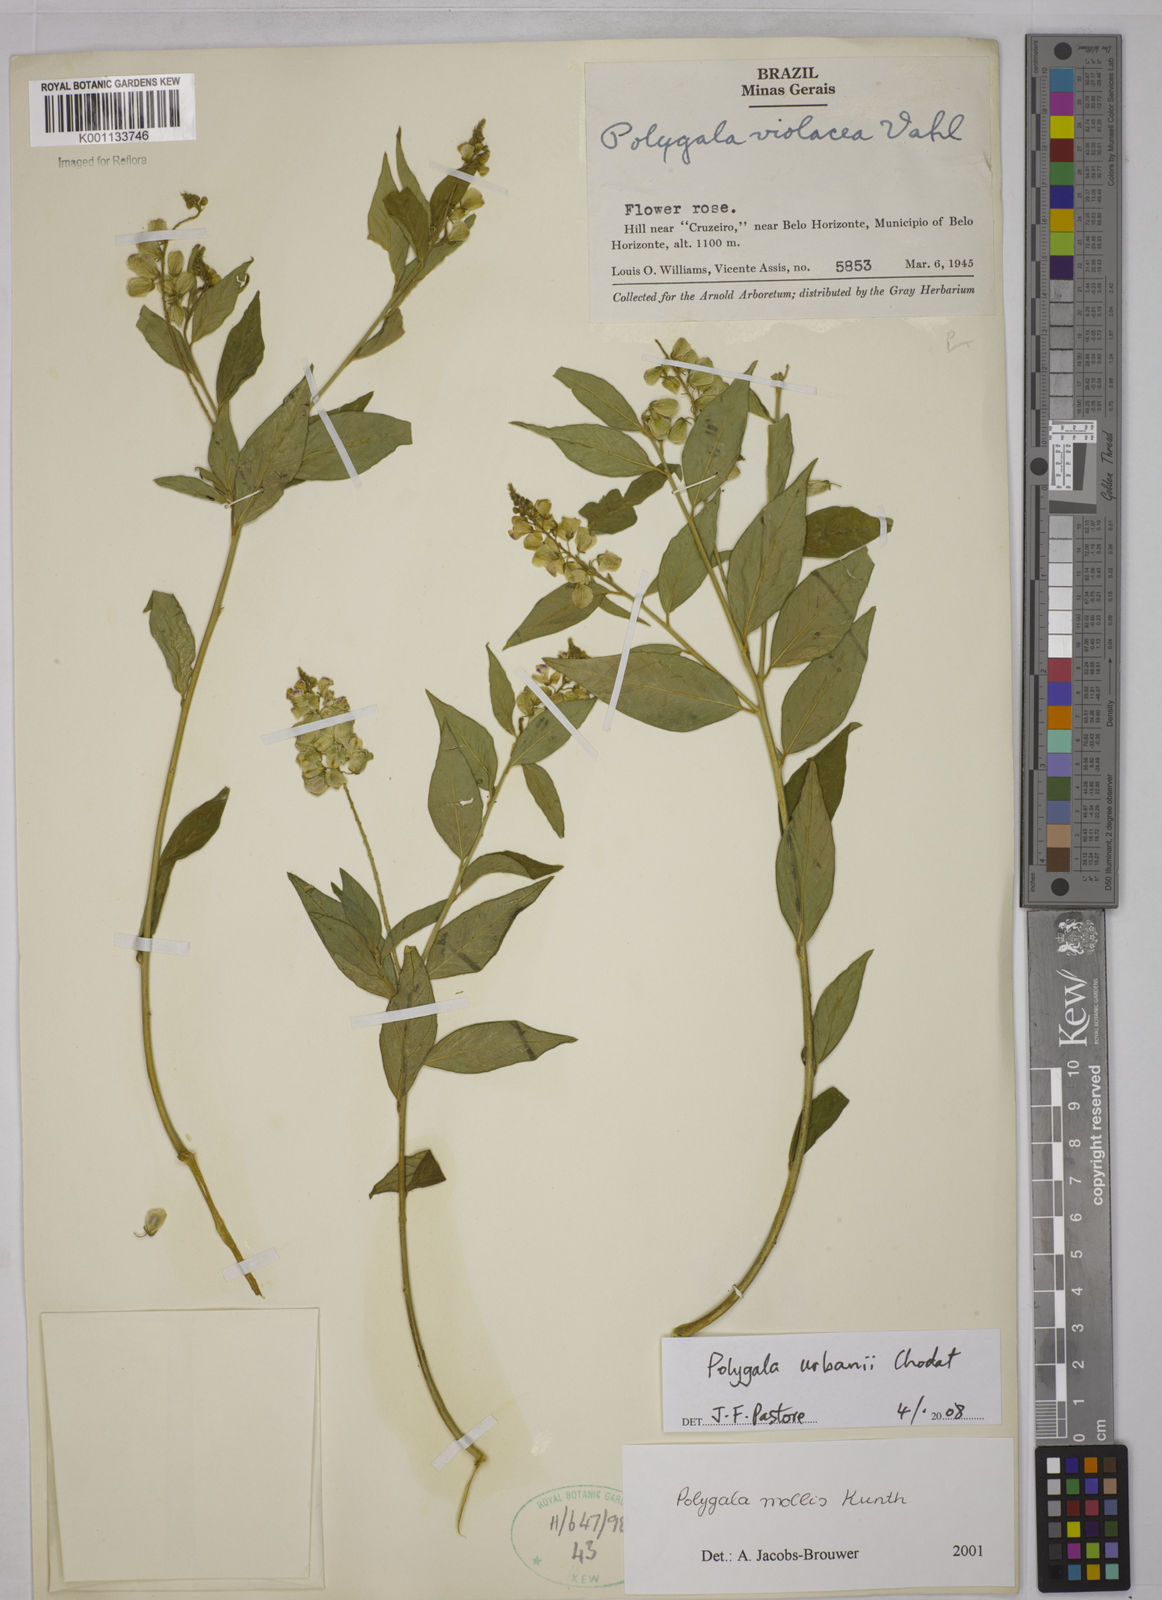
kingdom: Plantae
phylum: Tracheophyta
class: Magnoliopsida
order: Fabales
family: Polygalaceae
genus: Asemeia
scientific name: Asemeia monninoides
